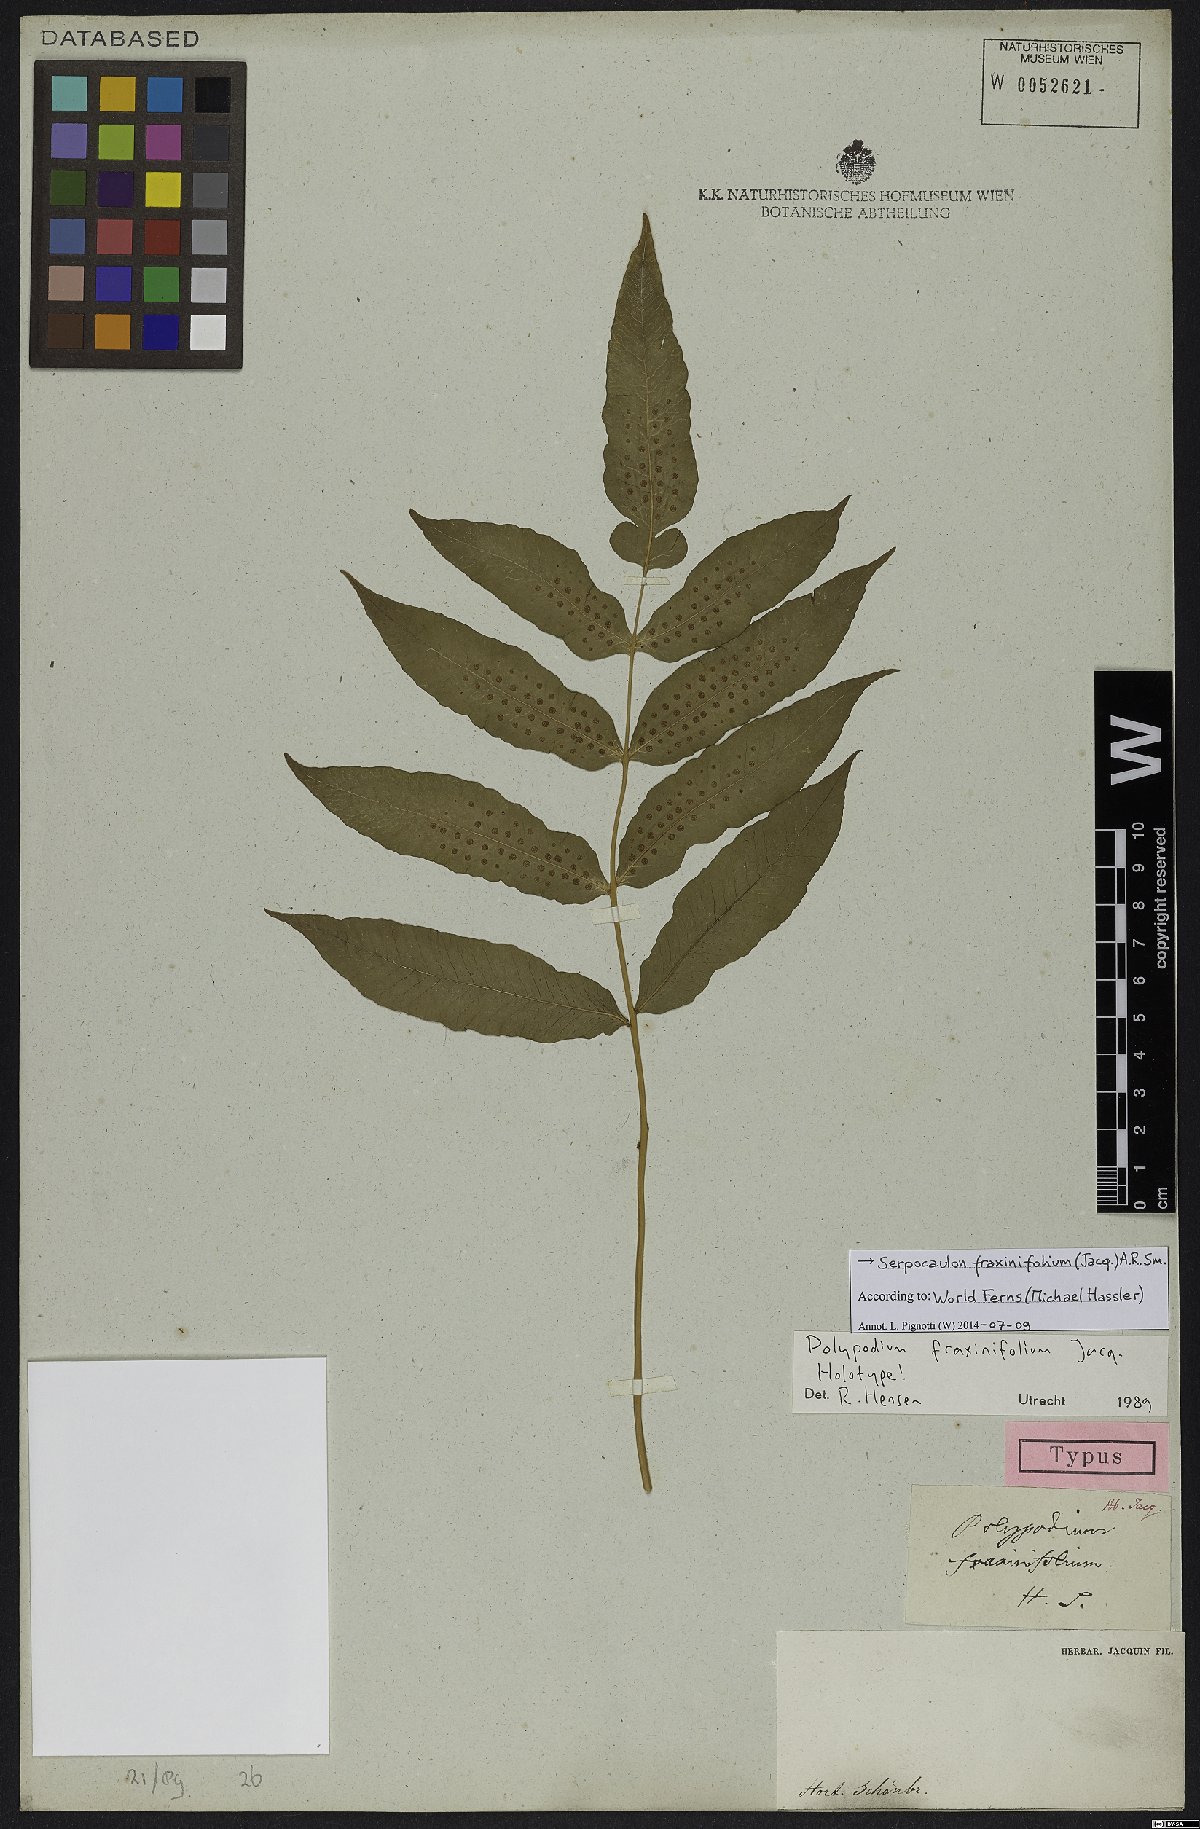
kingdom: Plantae
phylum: Tracheophyta
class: Polypodiopsida
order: Polypodiales
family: Polypodiaceae
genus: Serpocaulon
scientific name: Serpocaulon fraxinifolium
